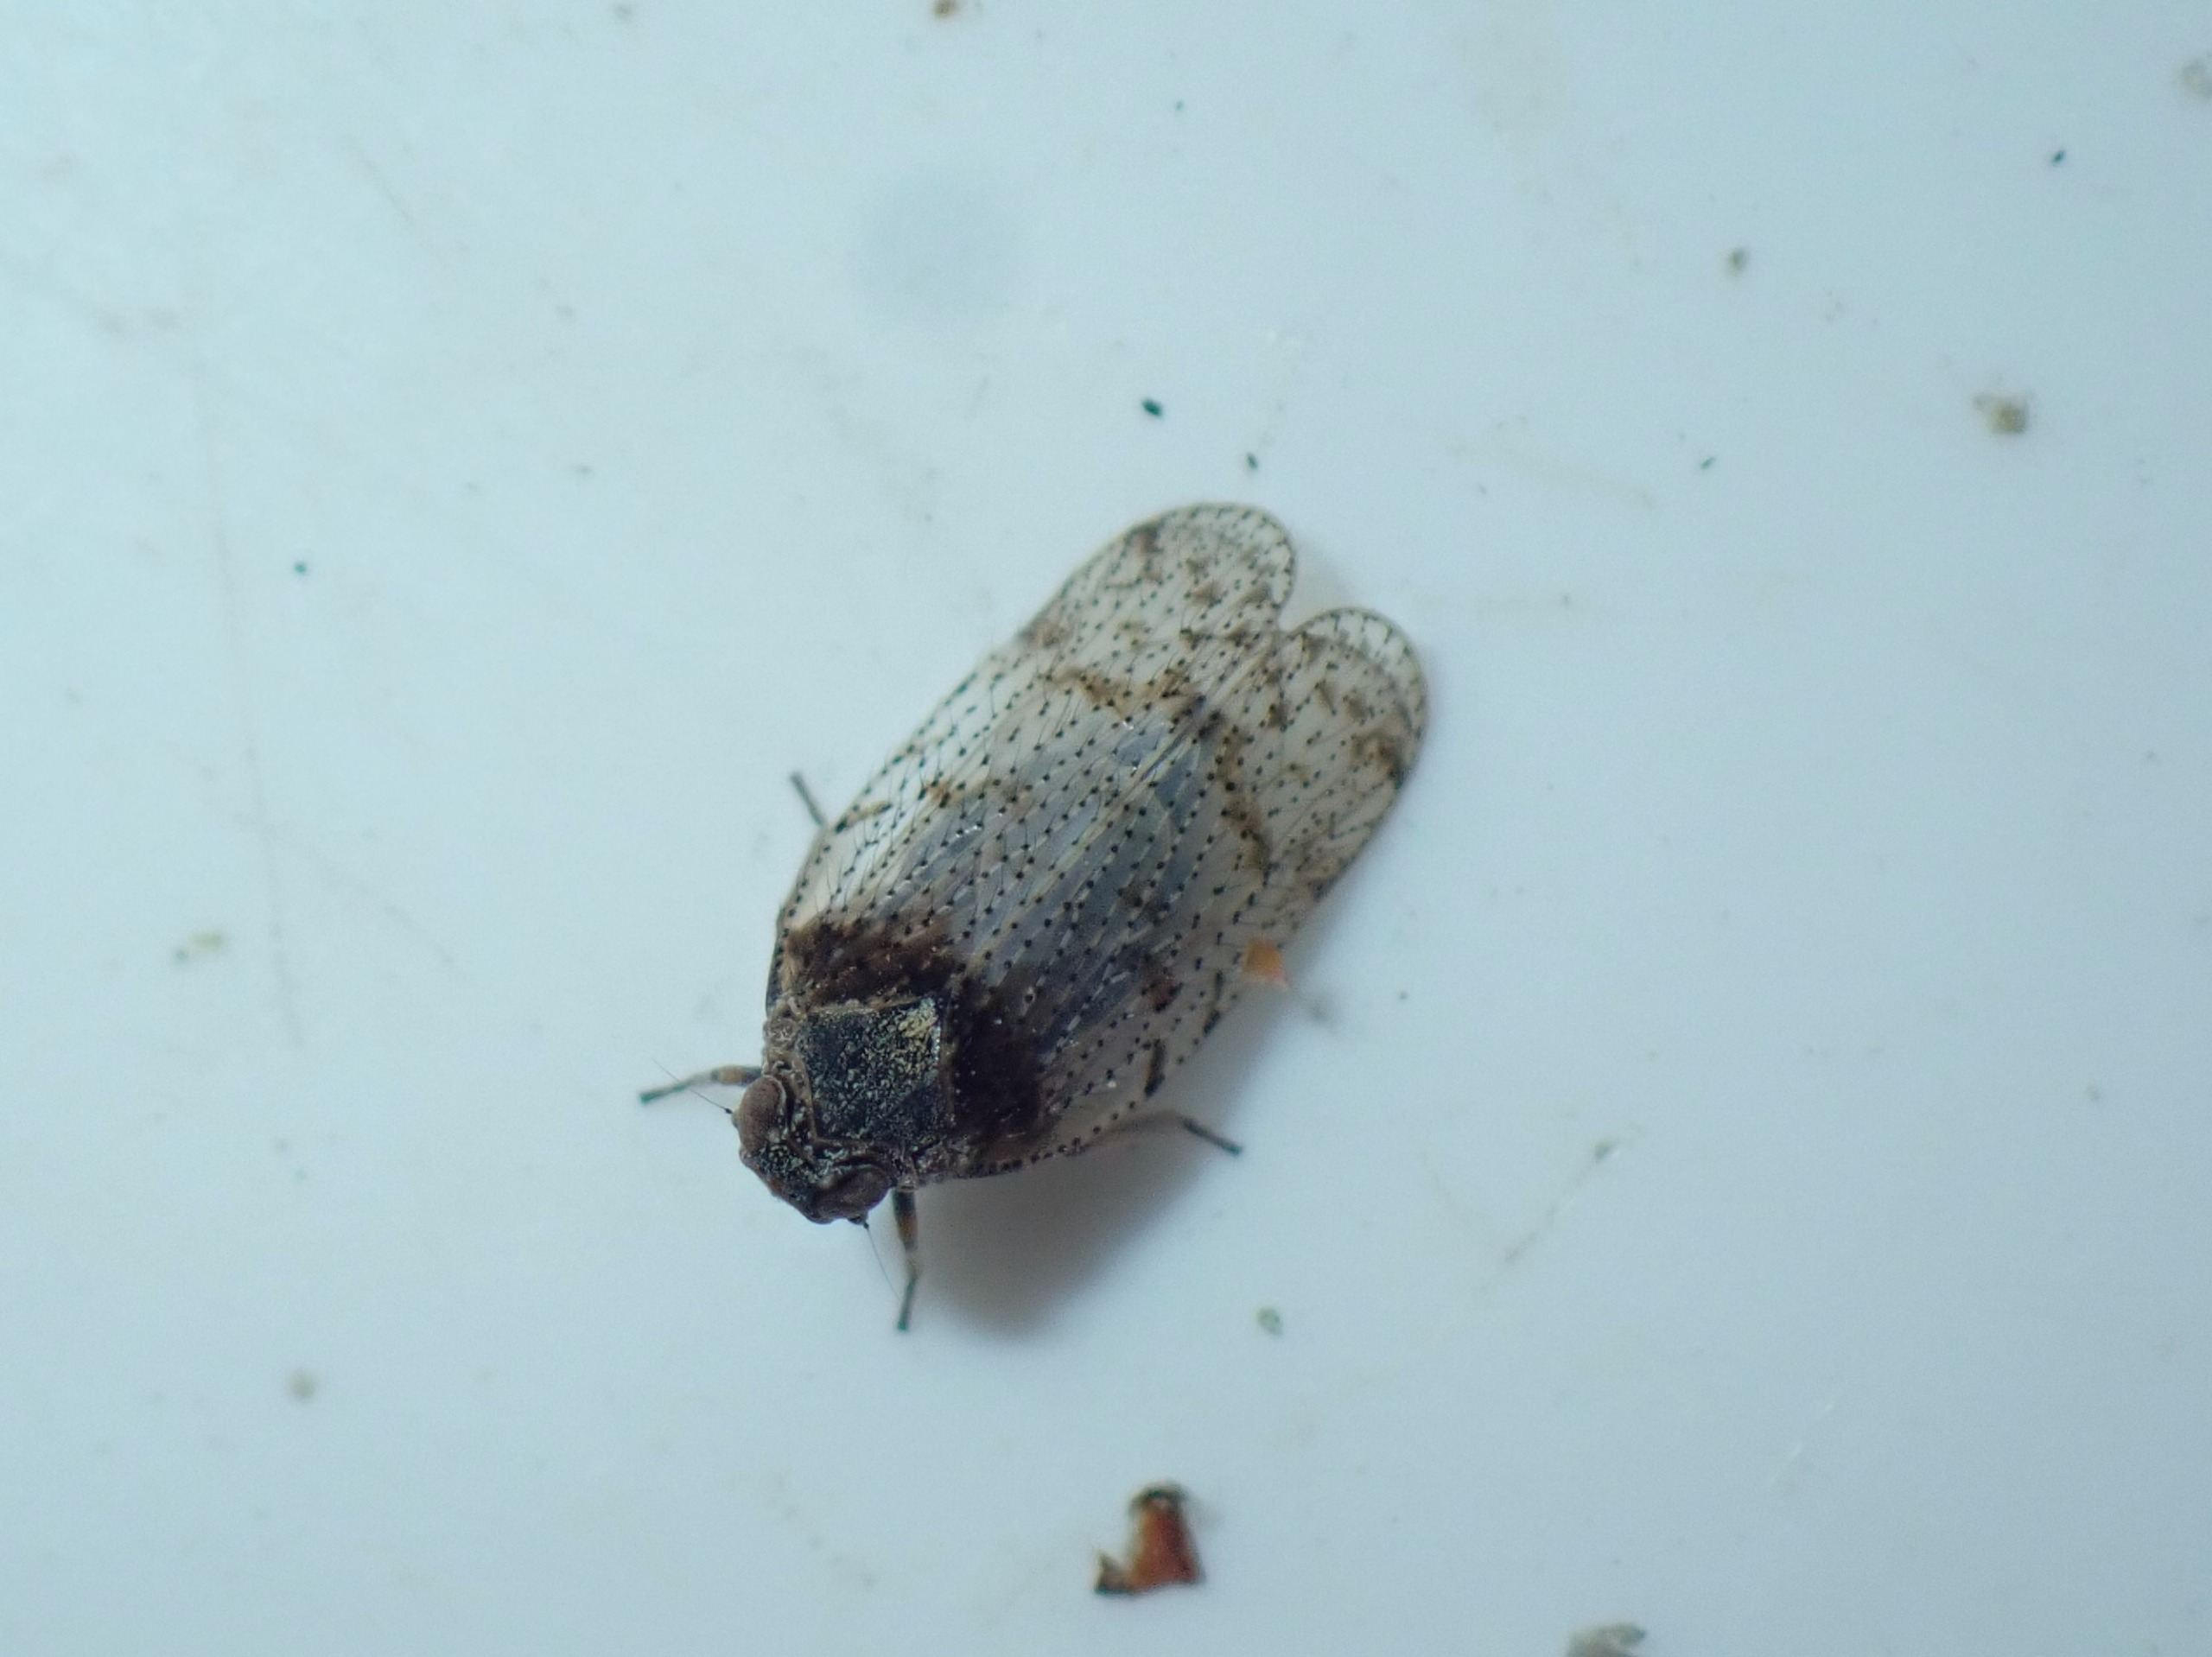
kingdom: Animalia
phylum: Arthropoda
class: Insecta
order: Hemiptera
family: Cixiidae
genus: Tachycixius
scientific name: Tachycixius pilosus
